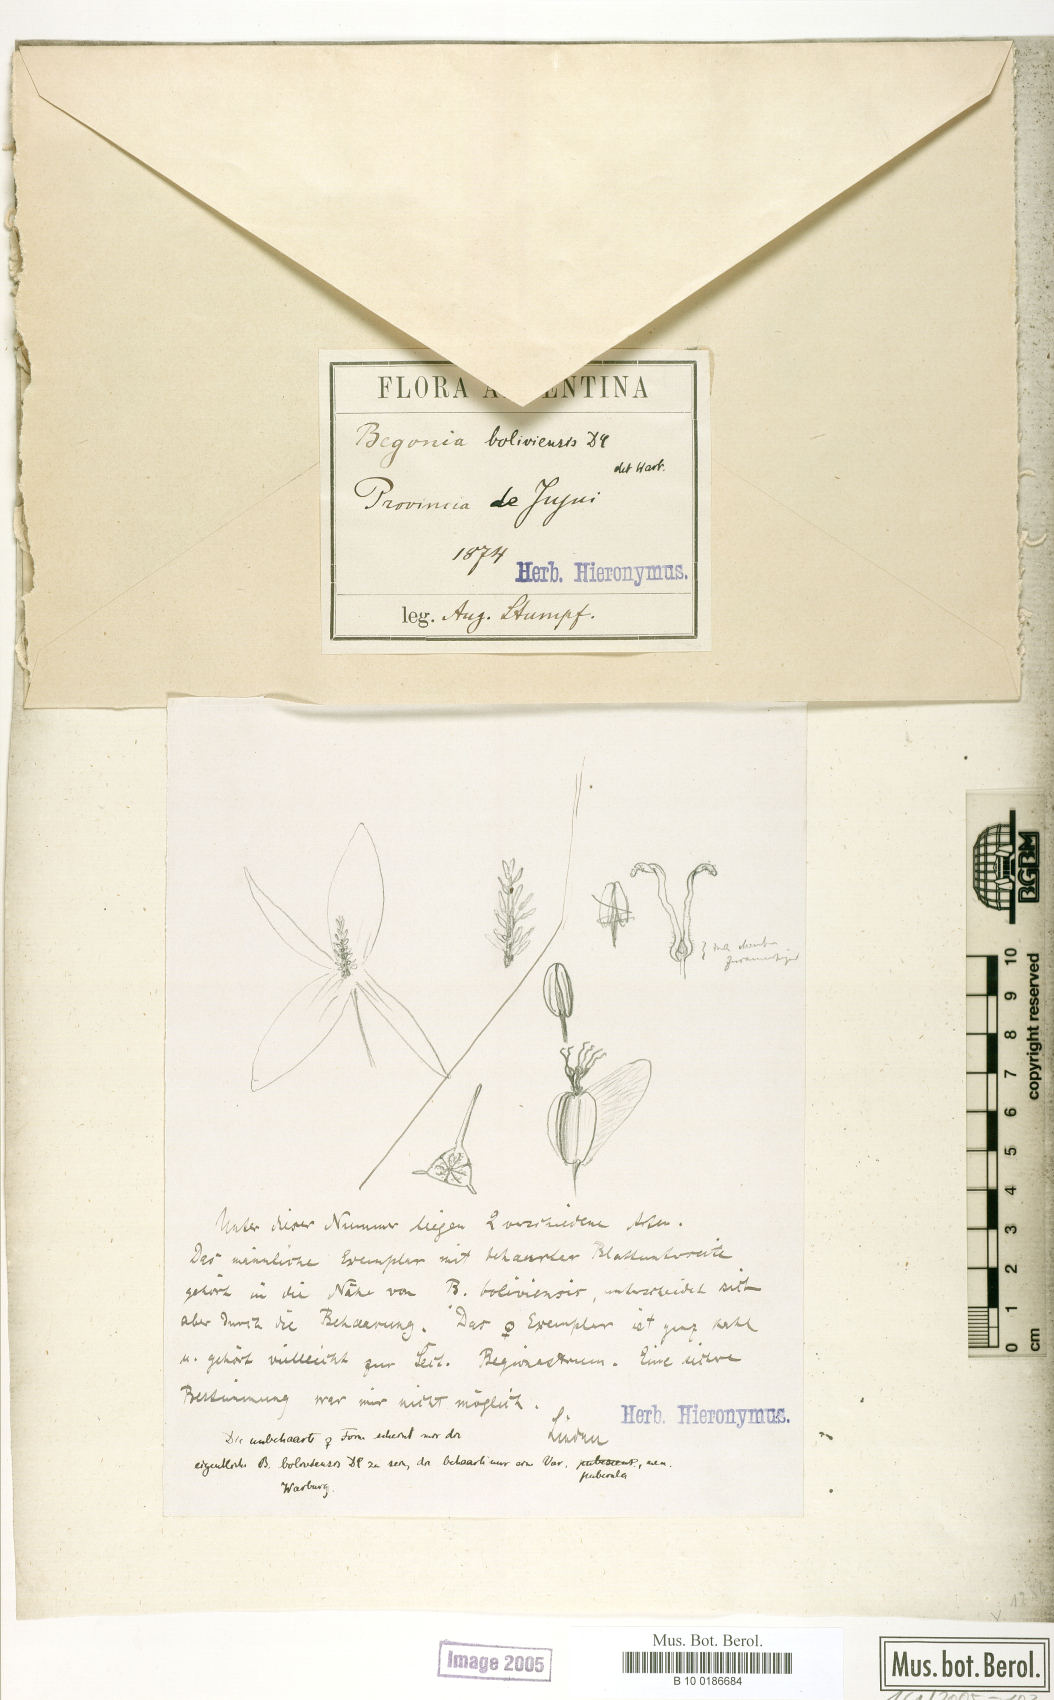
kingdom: Plantae
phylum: Tracheophyta
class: Magnoliopsida
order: Cucurbitales
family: Begoniaceae
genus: Begonia
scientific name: Begonia boliviensis
